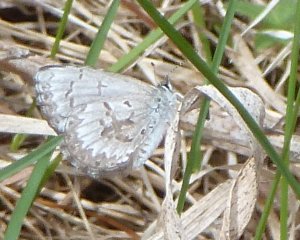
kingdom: Animalia
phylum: Arthropoda
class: Insecta
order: Lepidoptera
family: Lycaenidae
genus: Celastrina
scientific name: Celastrina lucia
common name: Northern Spring Azure
